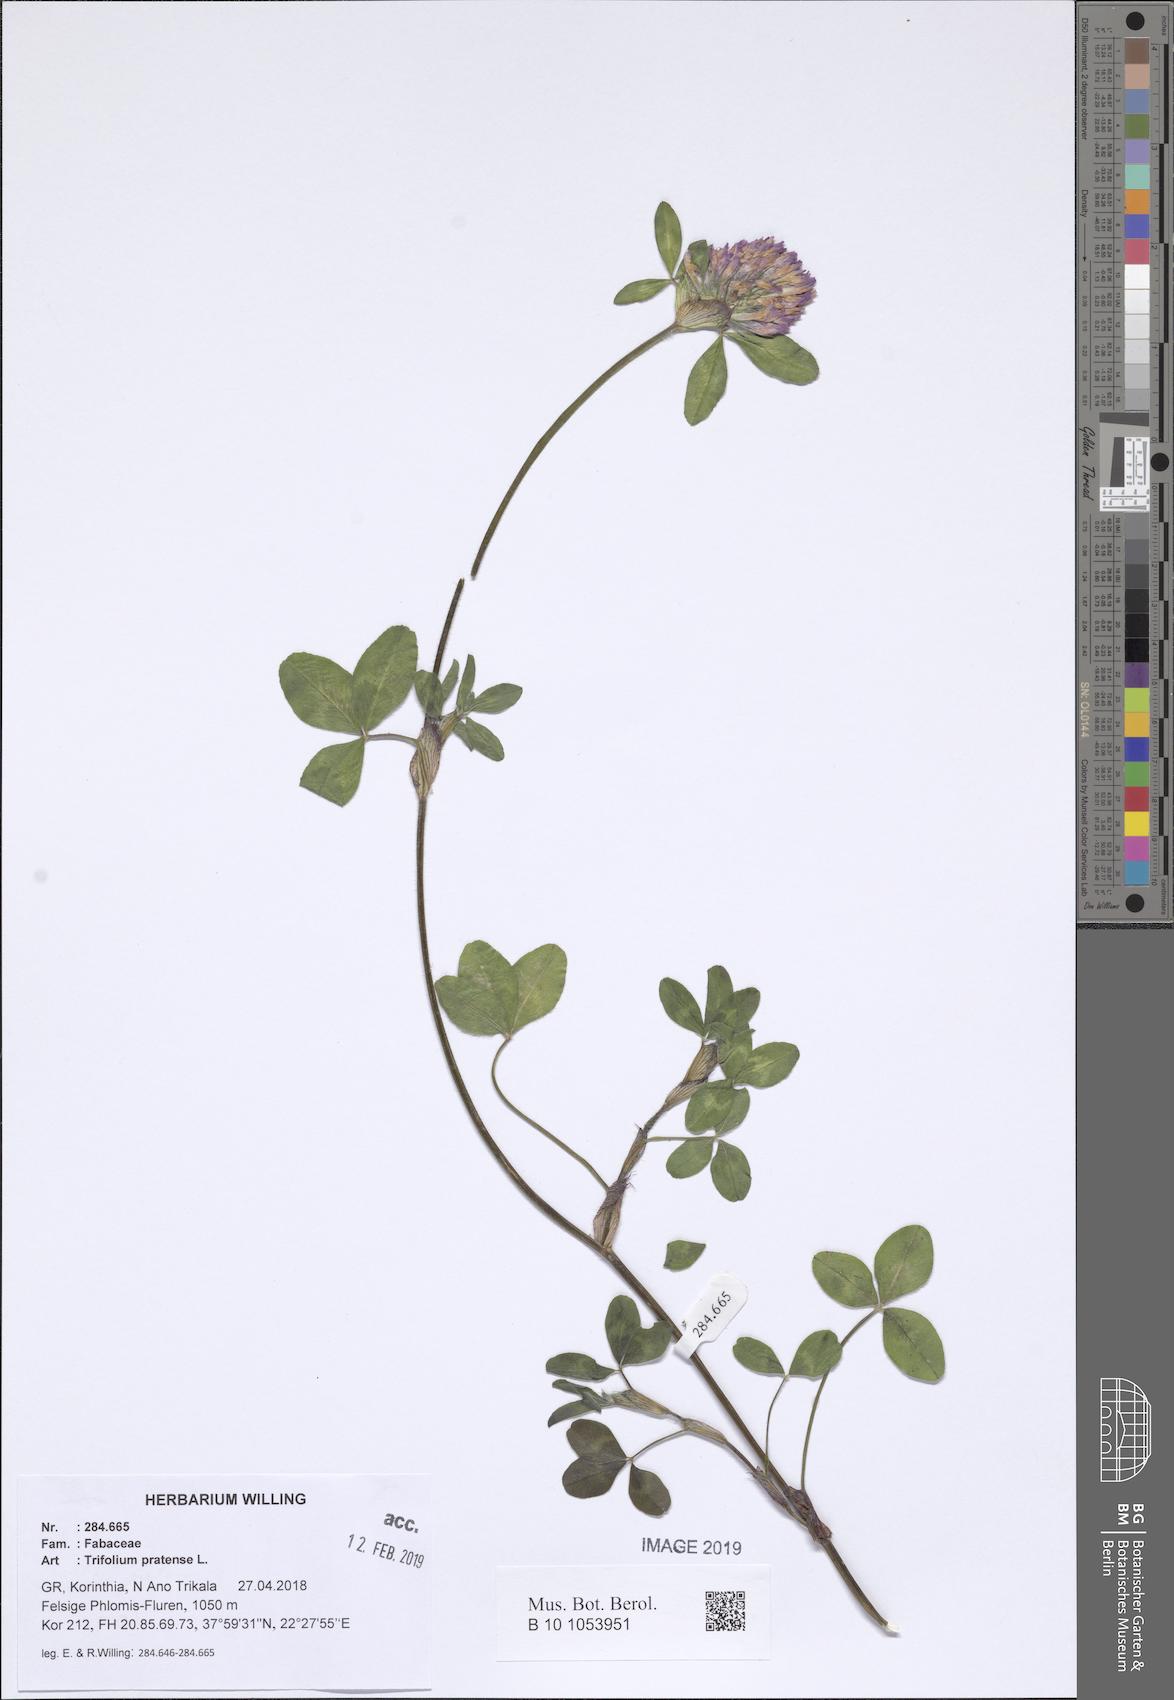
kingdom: Plantae
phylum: Tracheophyta
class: Magnoliopsida
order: Fabales
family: Fabaceae
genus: Trifolium
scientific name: Trifolium pratense
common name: Red clover
